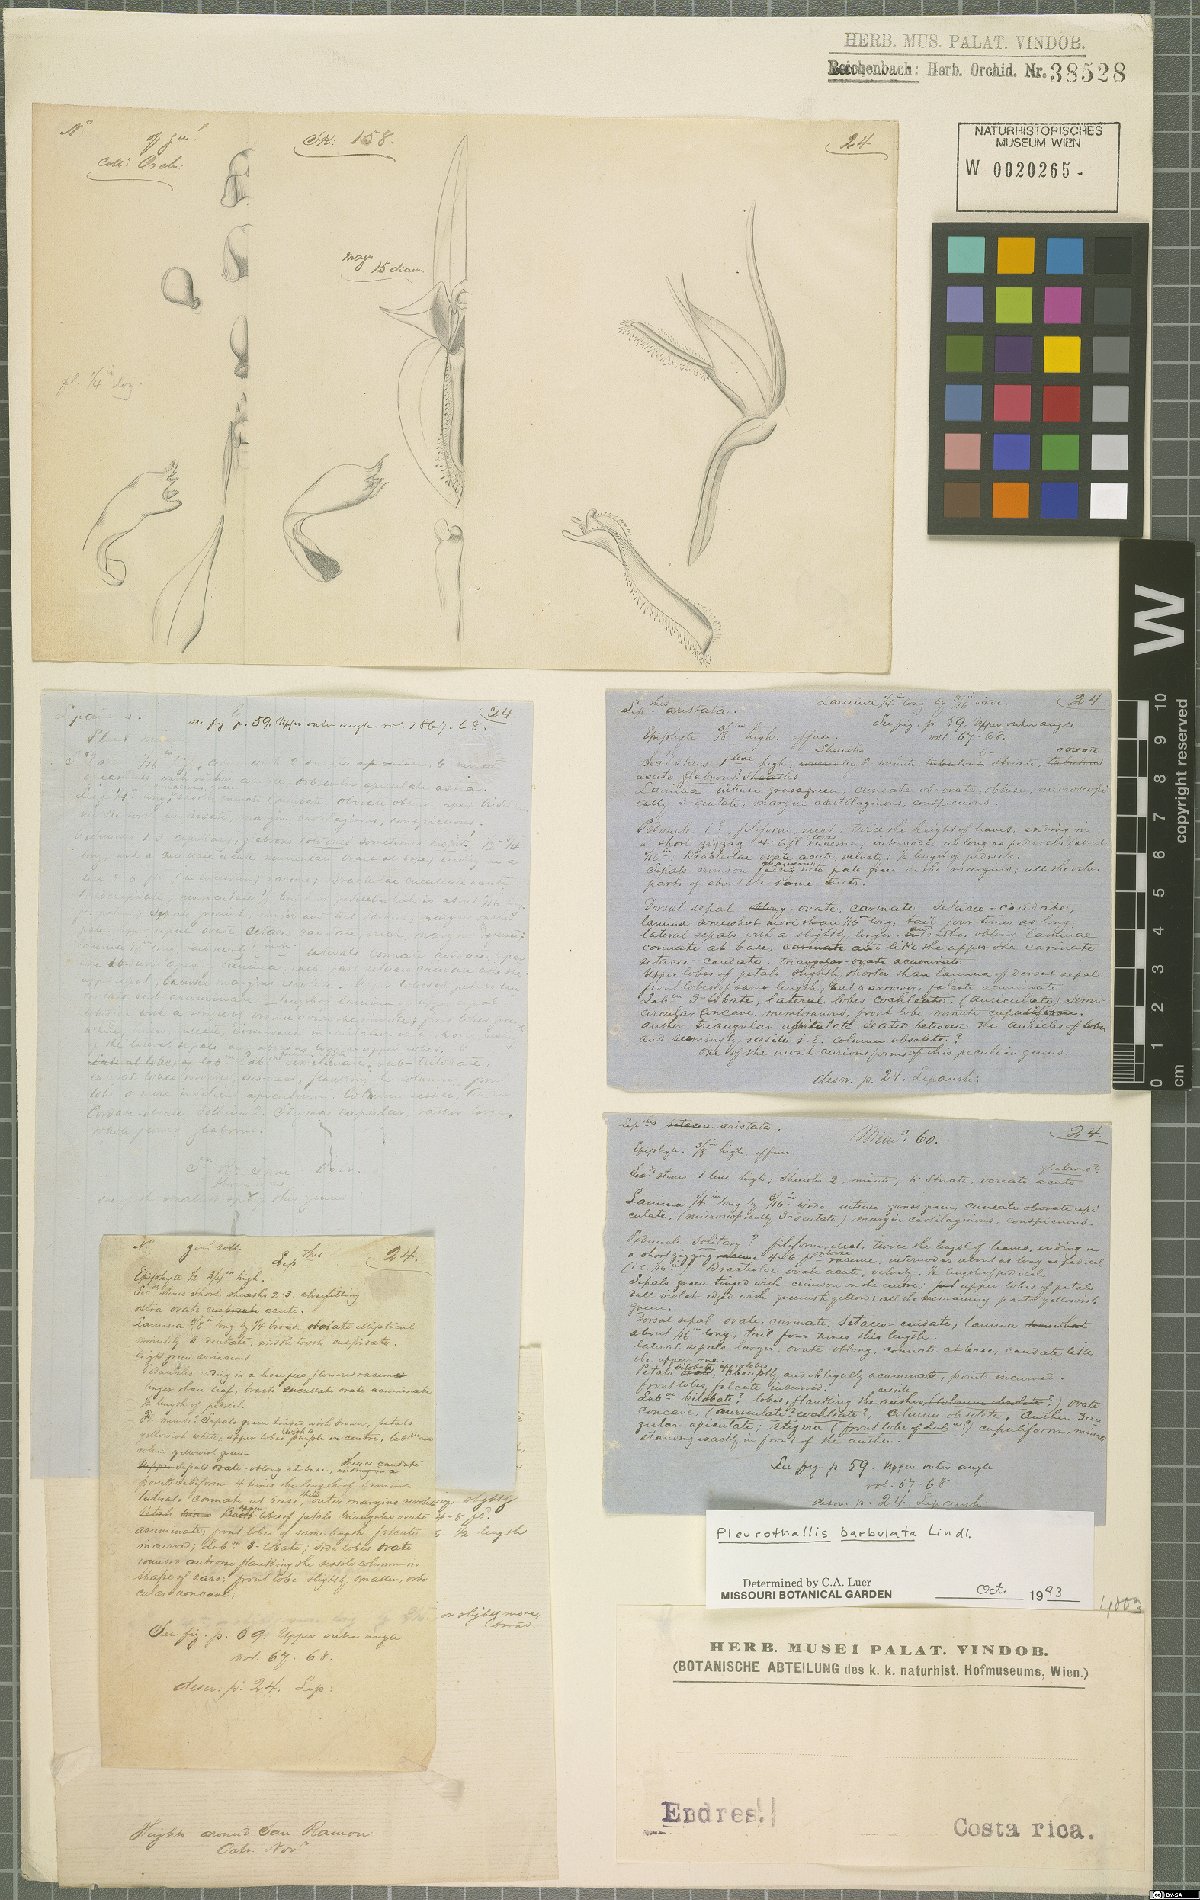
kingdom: Plantae
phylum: Tracheophyta
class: Liliopsida
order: Asparagales
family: Orchidaceae
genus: Anathallis
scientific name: Anathallis barbulata
